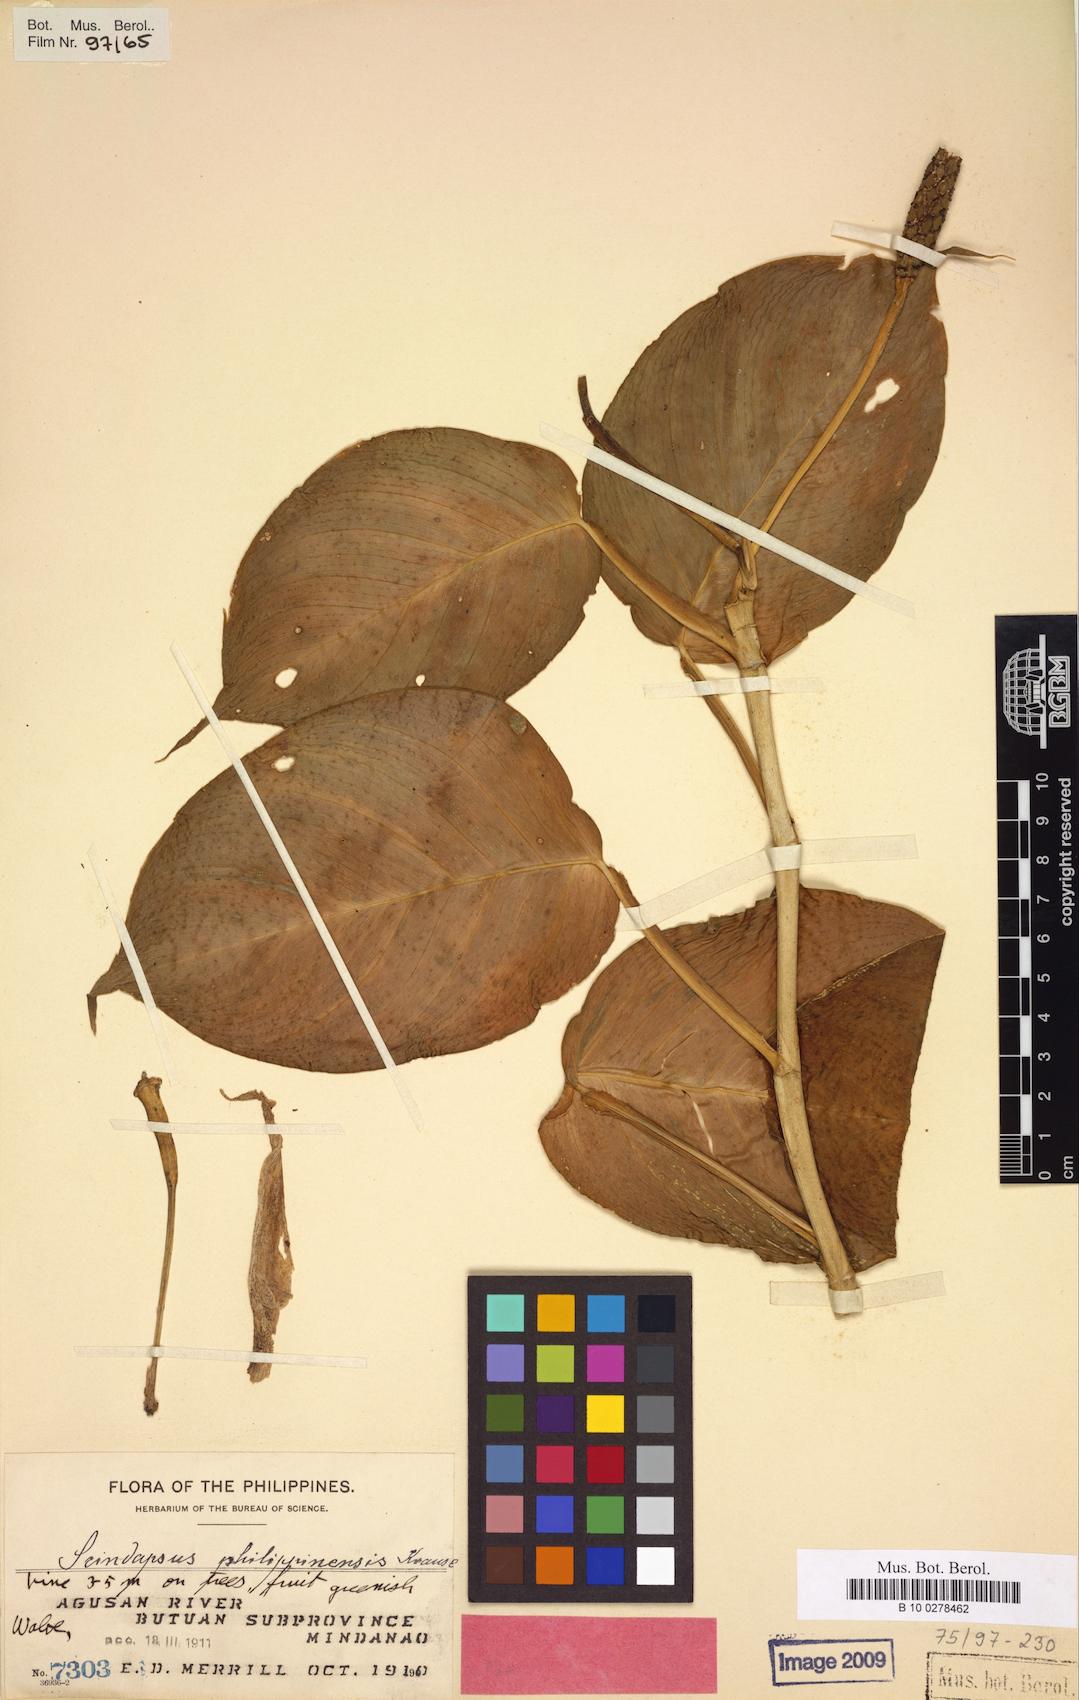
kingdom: Plantae
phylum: Tracheophyta
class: Liliopsida
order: Alismatales
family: Araceae
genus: Scindapsus
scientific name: Scindapsus curranii
